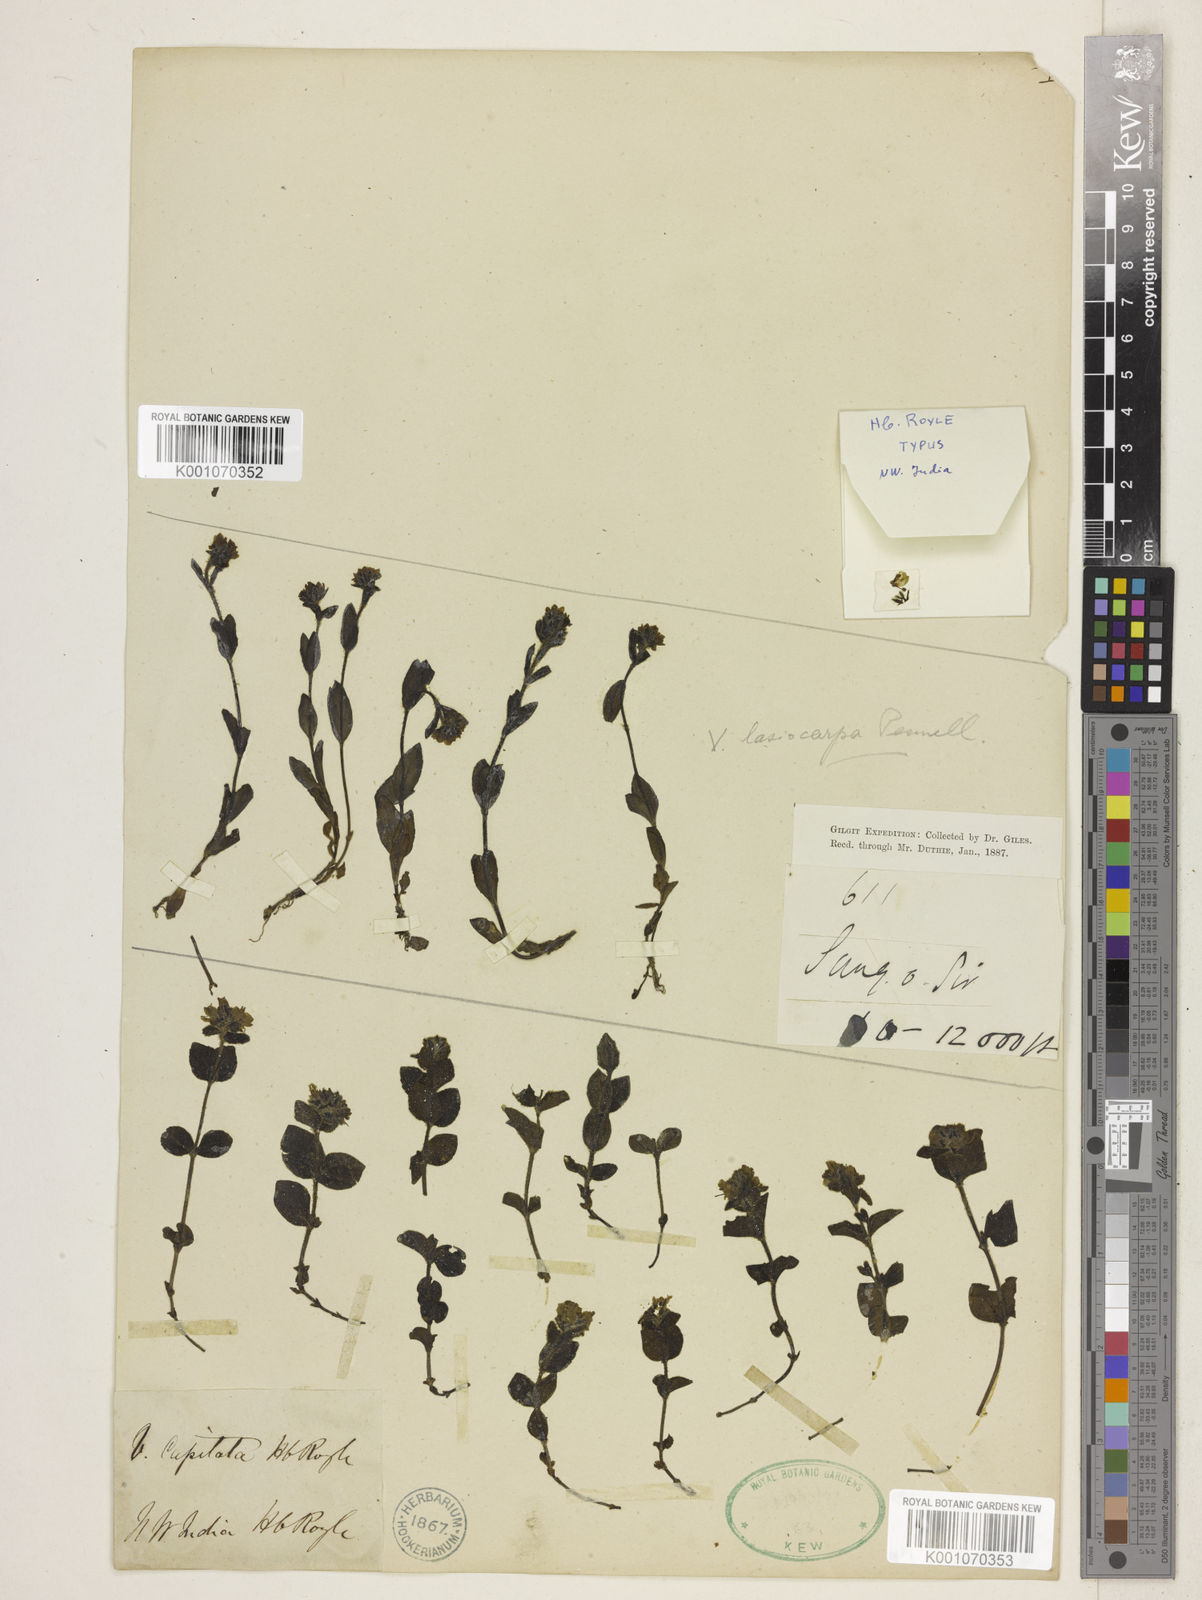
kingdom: Plantae
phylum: Tracheophyta
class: Magnoliopsida
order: Lamiales
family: Plantaginaceae
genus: Veronica
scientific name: Veronica capitata
